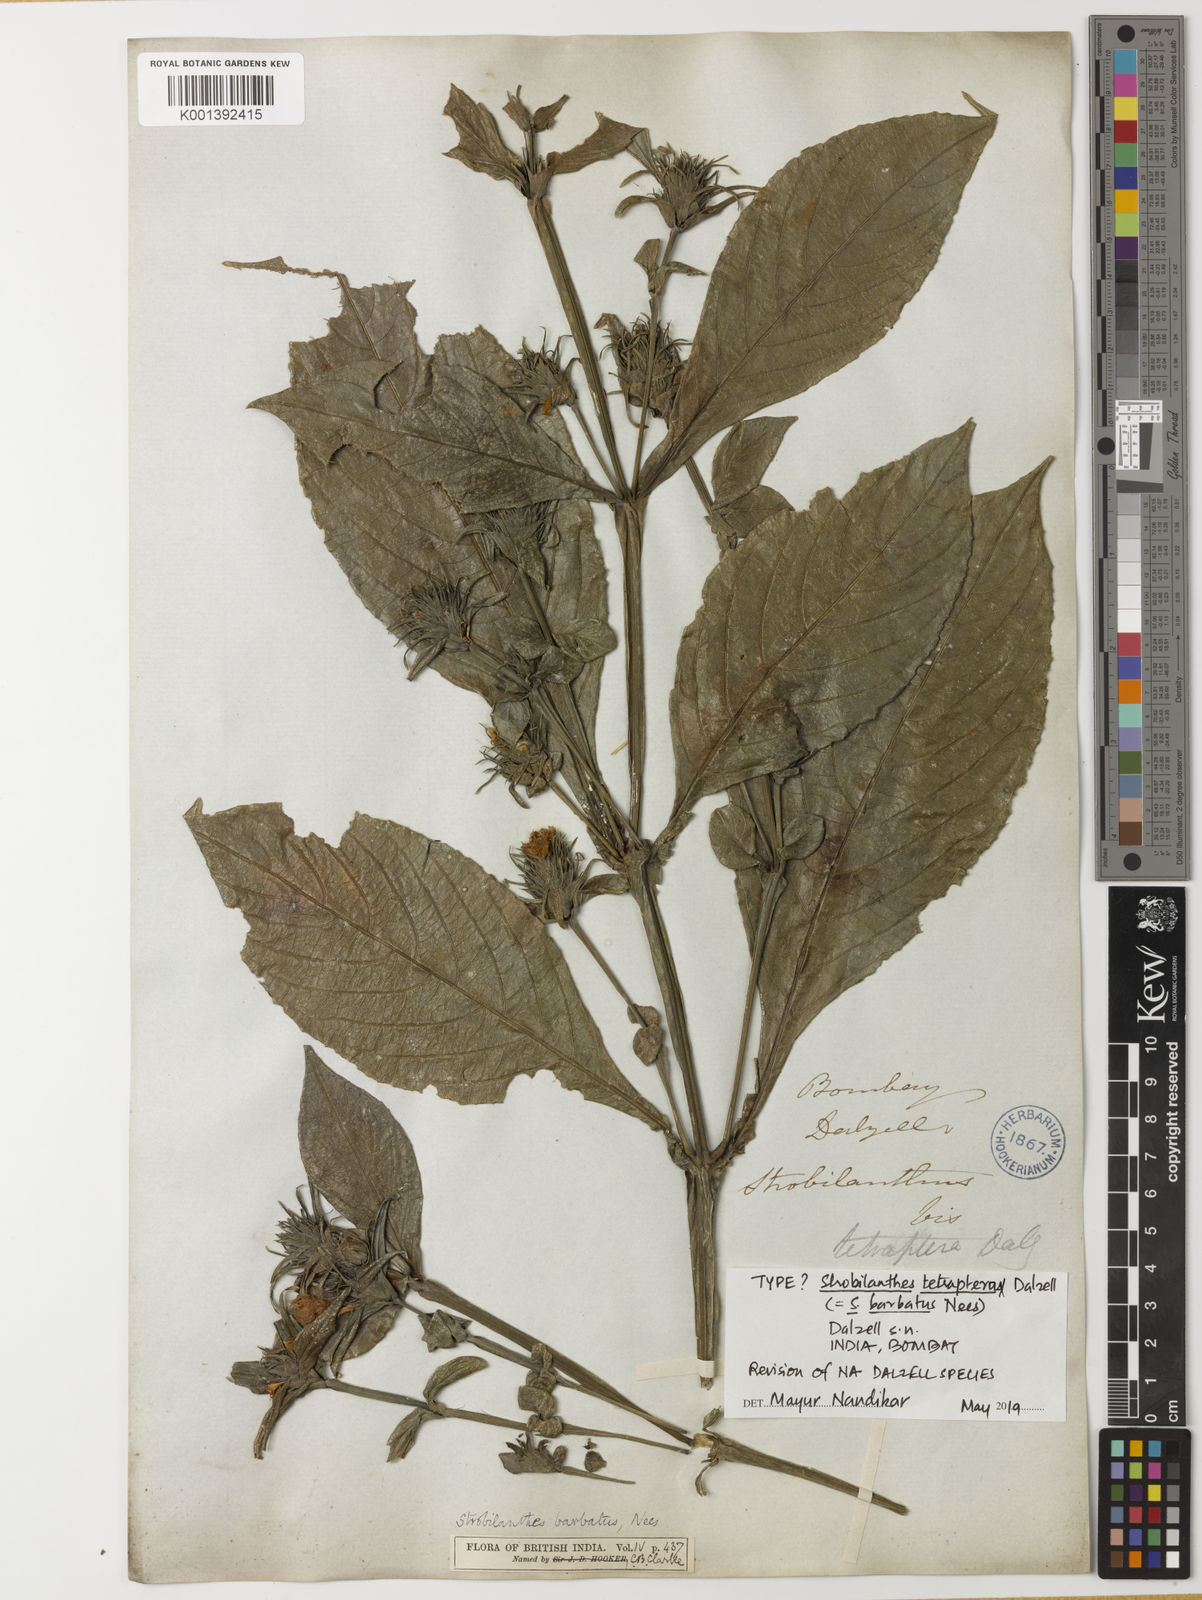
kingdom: Plantae
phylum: Tracheophyta
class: Magnoliopsida
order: Lamiales
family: Acanthaceae
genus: Strobilanthes
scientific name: Strobilanthes barbata
